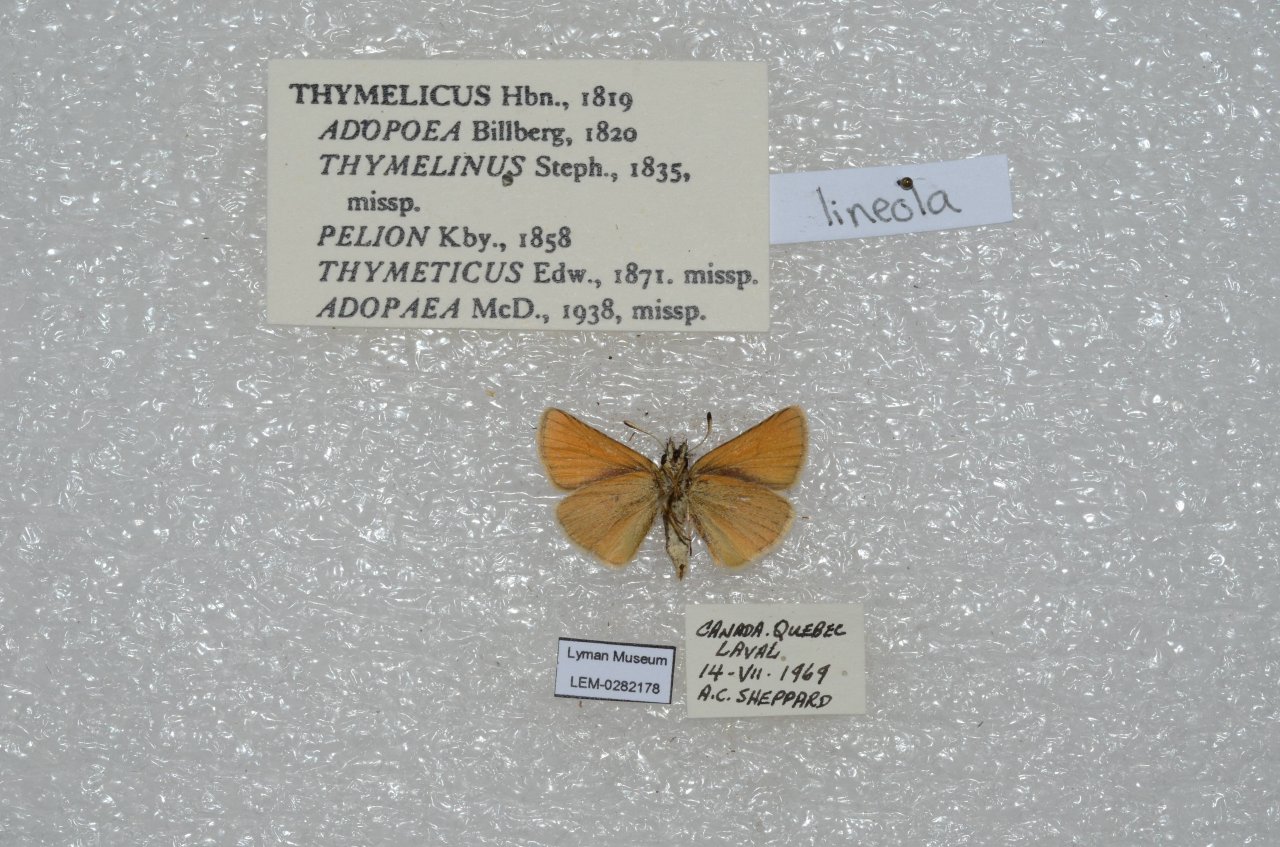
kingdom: Animalia
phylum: Arthropoda
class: Insecta
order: Lepidoptera
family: Hesperiidae
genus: Thymelicus
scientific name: Thymelicus lineola
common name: European Skipper
